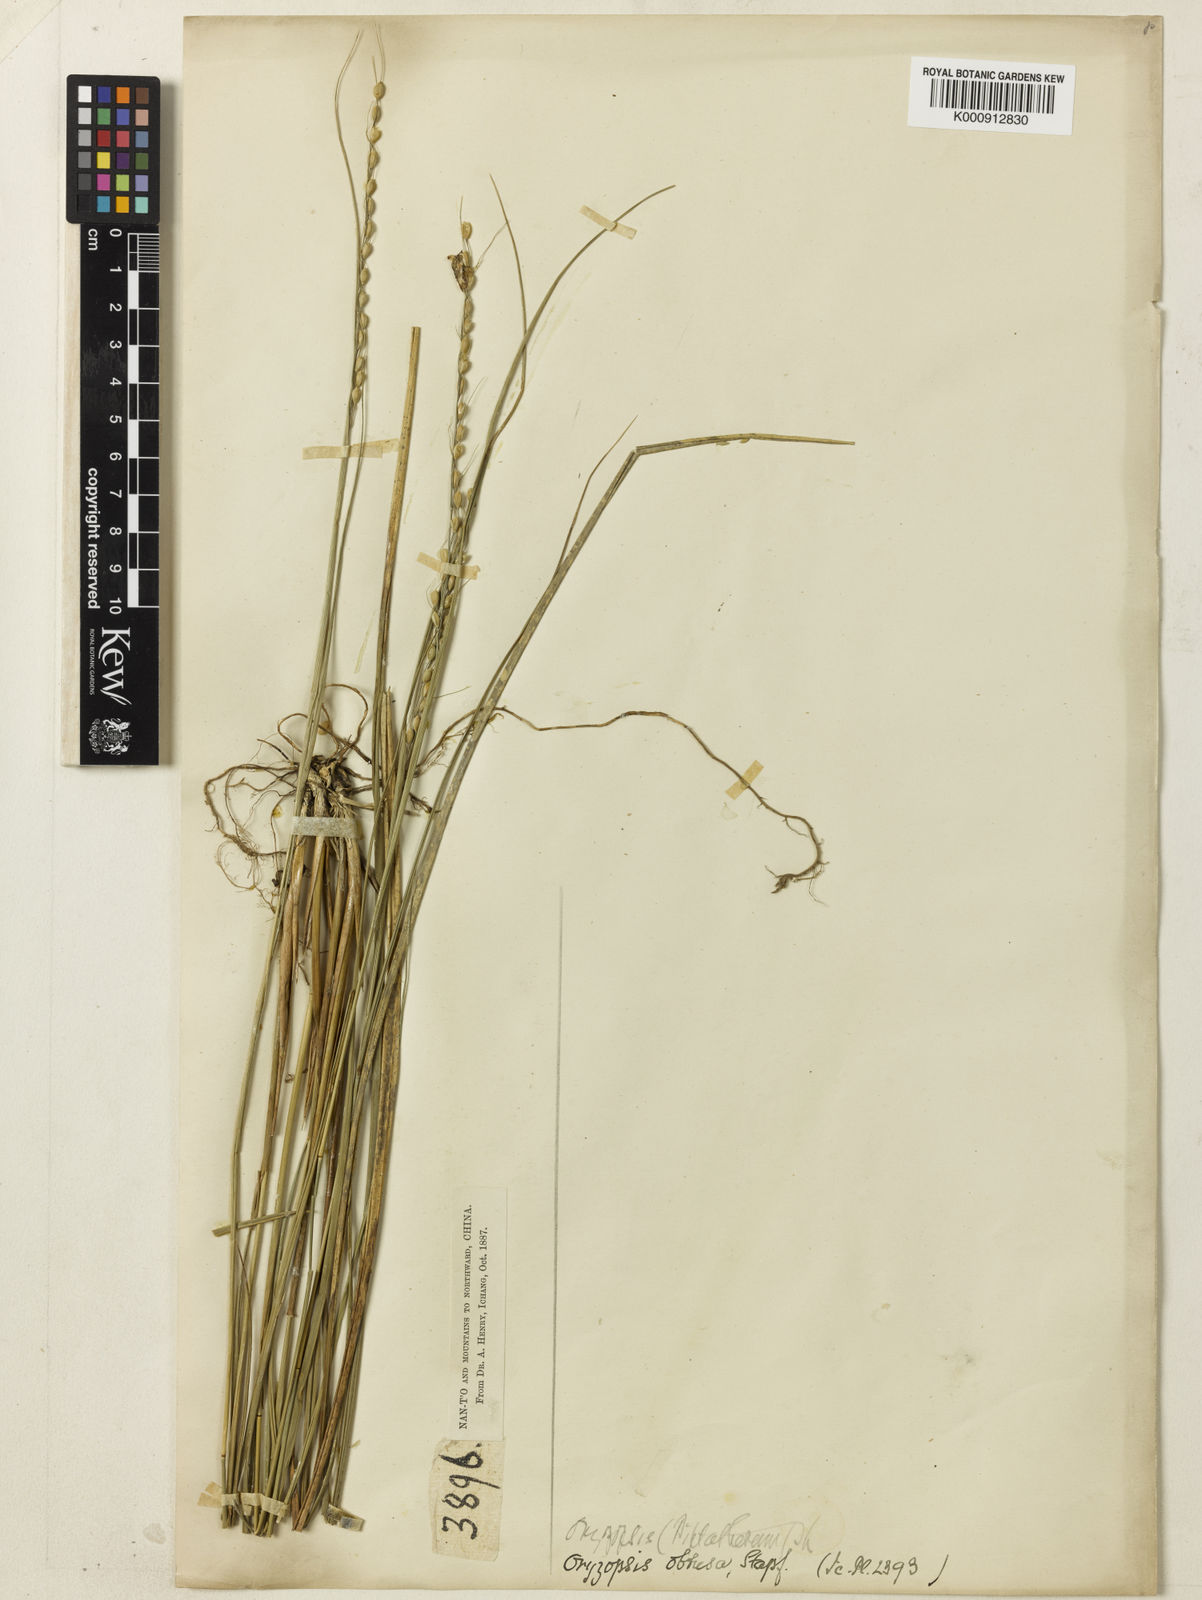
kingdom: Plantae
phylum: Tracheophyta
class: Liliopsida
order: Poales
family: Poaceae
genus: Patis
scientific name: Patis obtusa
